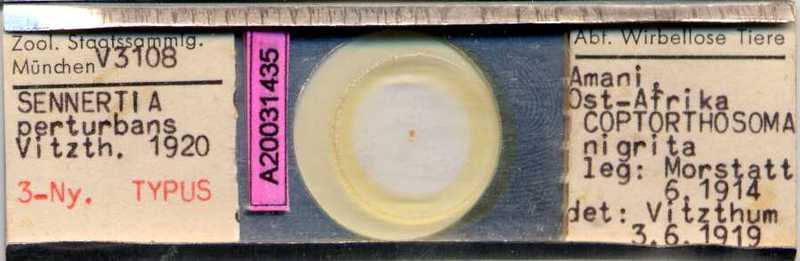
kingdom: Animalia
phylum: Arthropoda
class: Arachnida
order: Sarcoptiformes
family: Chaetodactylidae
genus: Sennertia
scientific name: Sennertia perturbans
